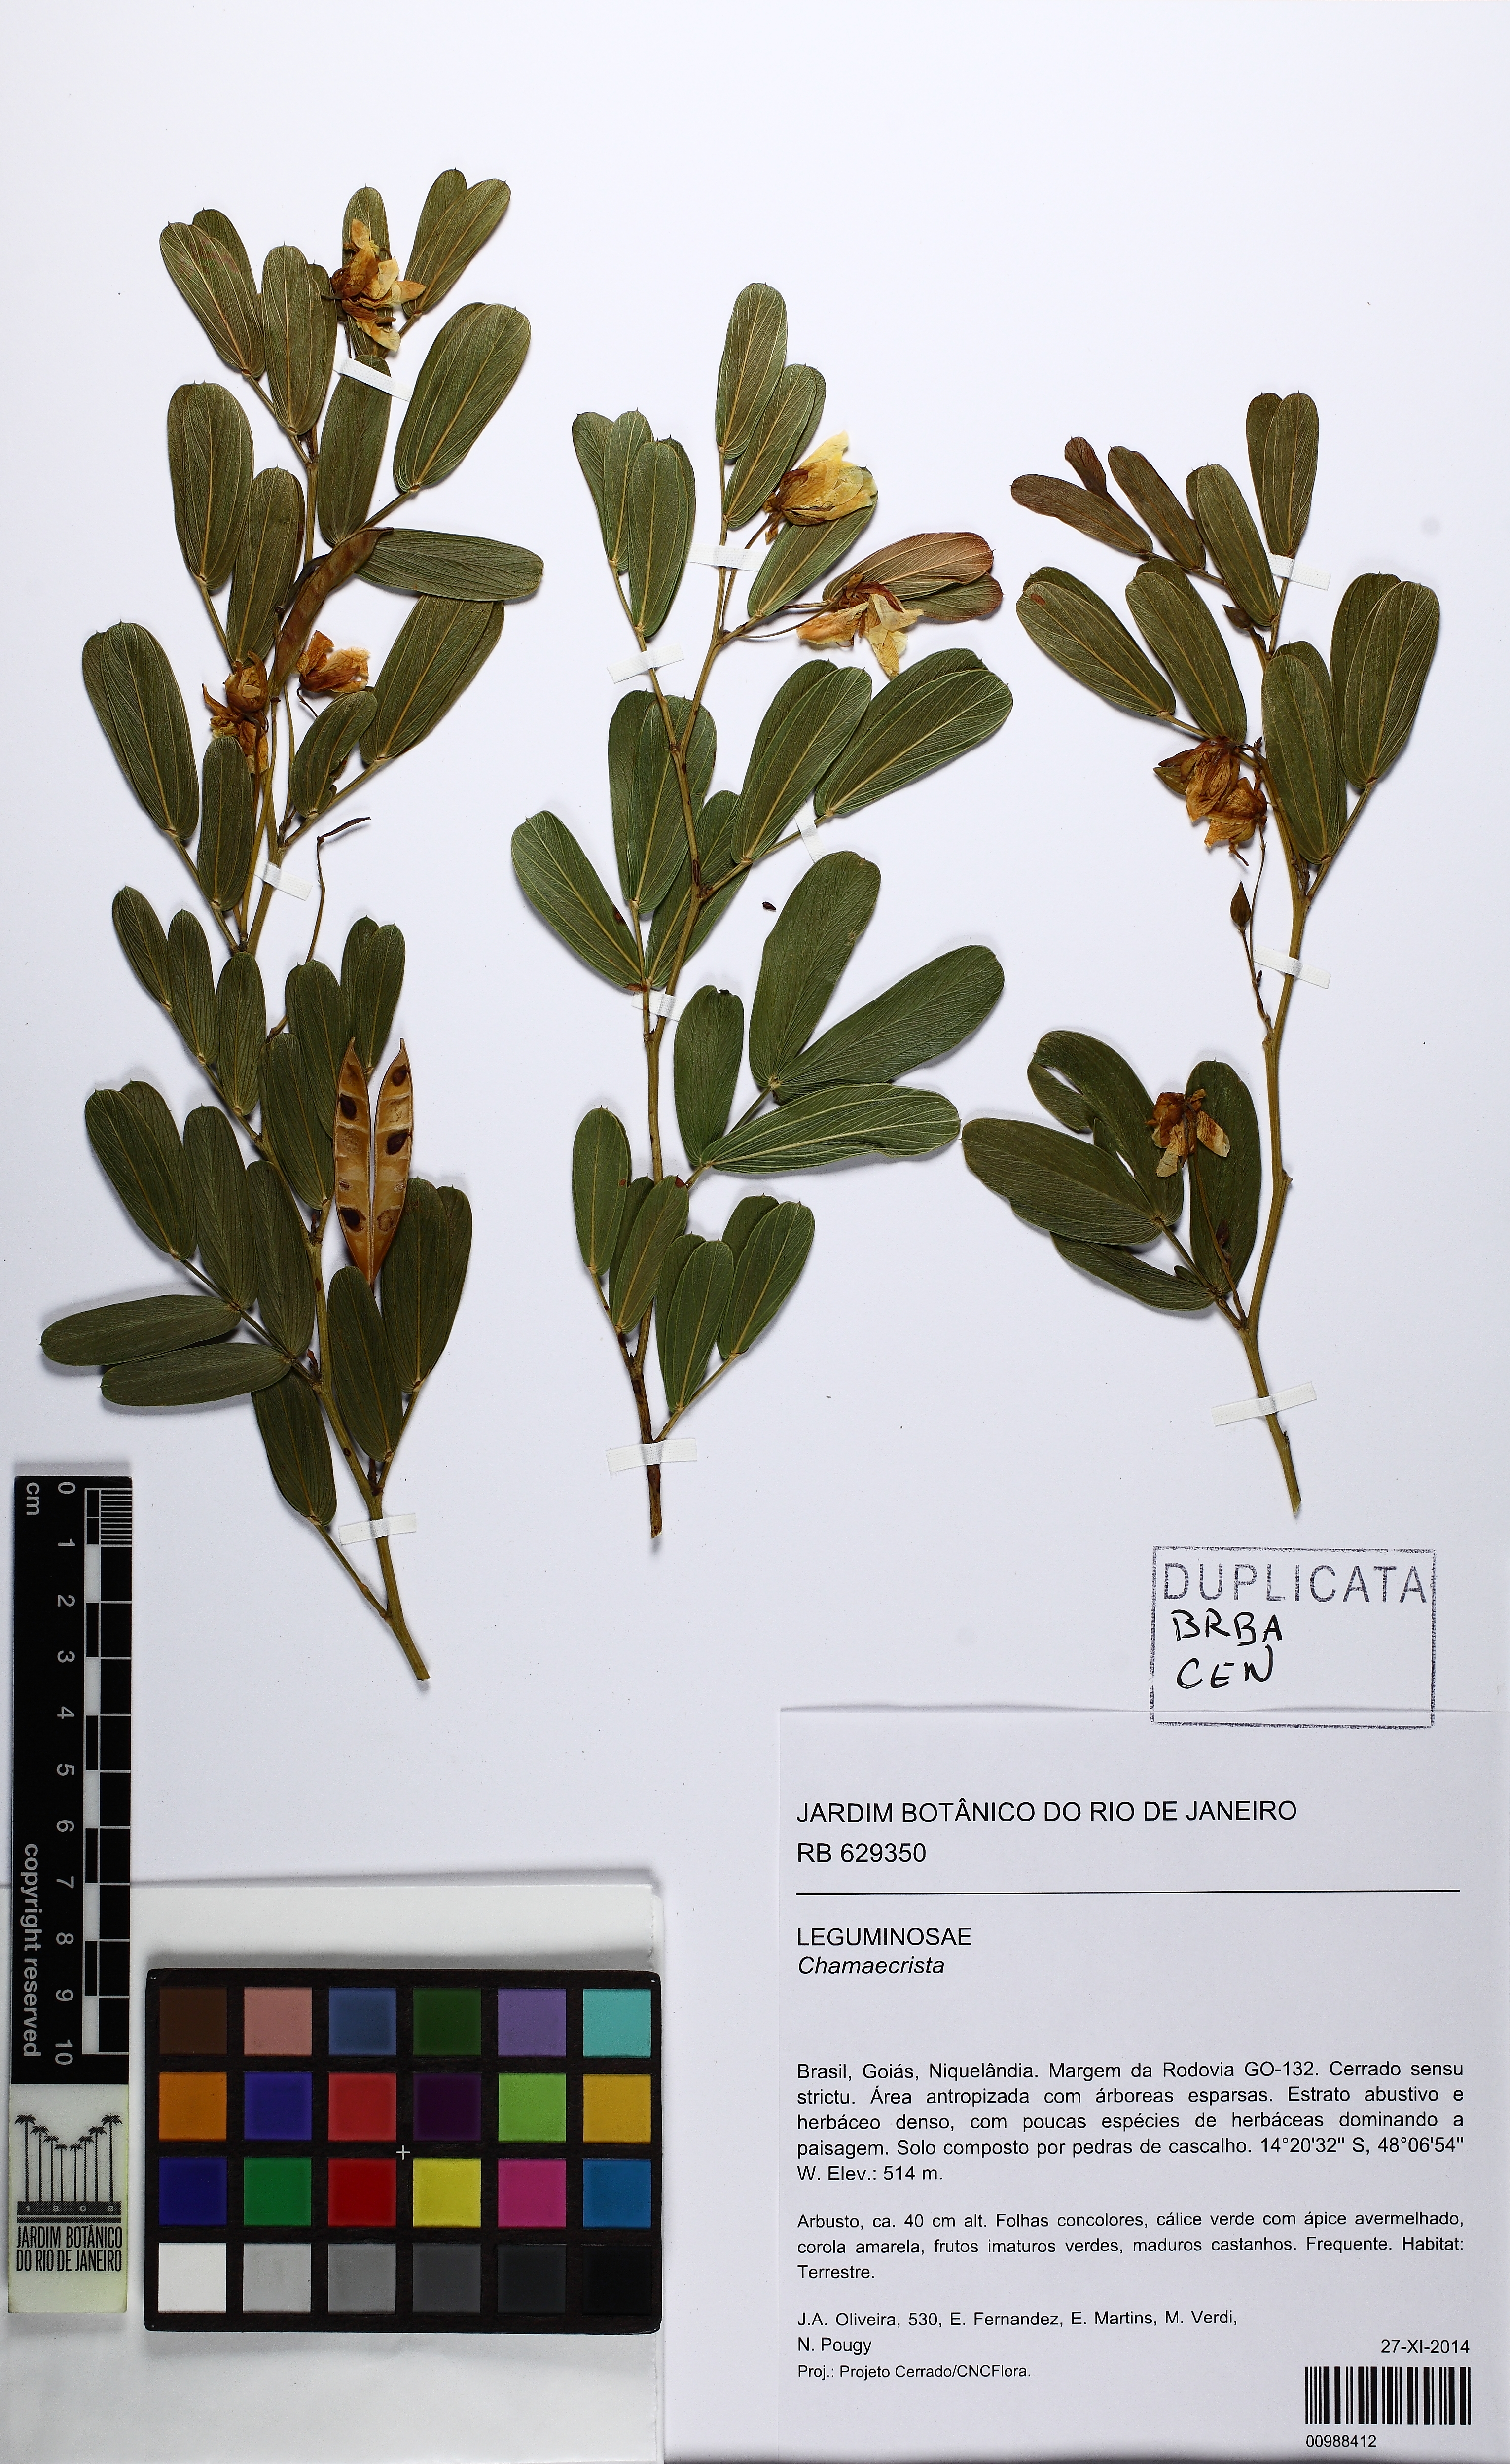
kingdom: Plantae
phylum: Tracheophyta
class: Magnoliopsida
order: Fabales
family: Fabaceae
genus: Chamaecrista
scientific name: Chamaecrista burchellii
